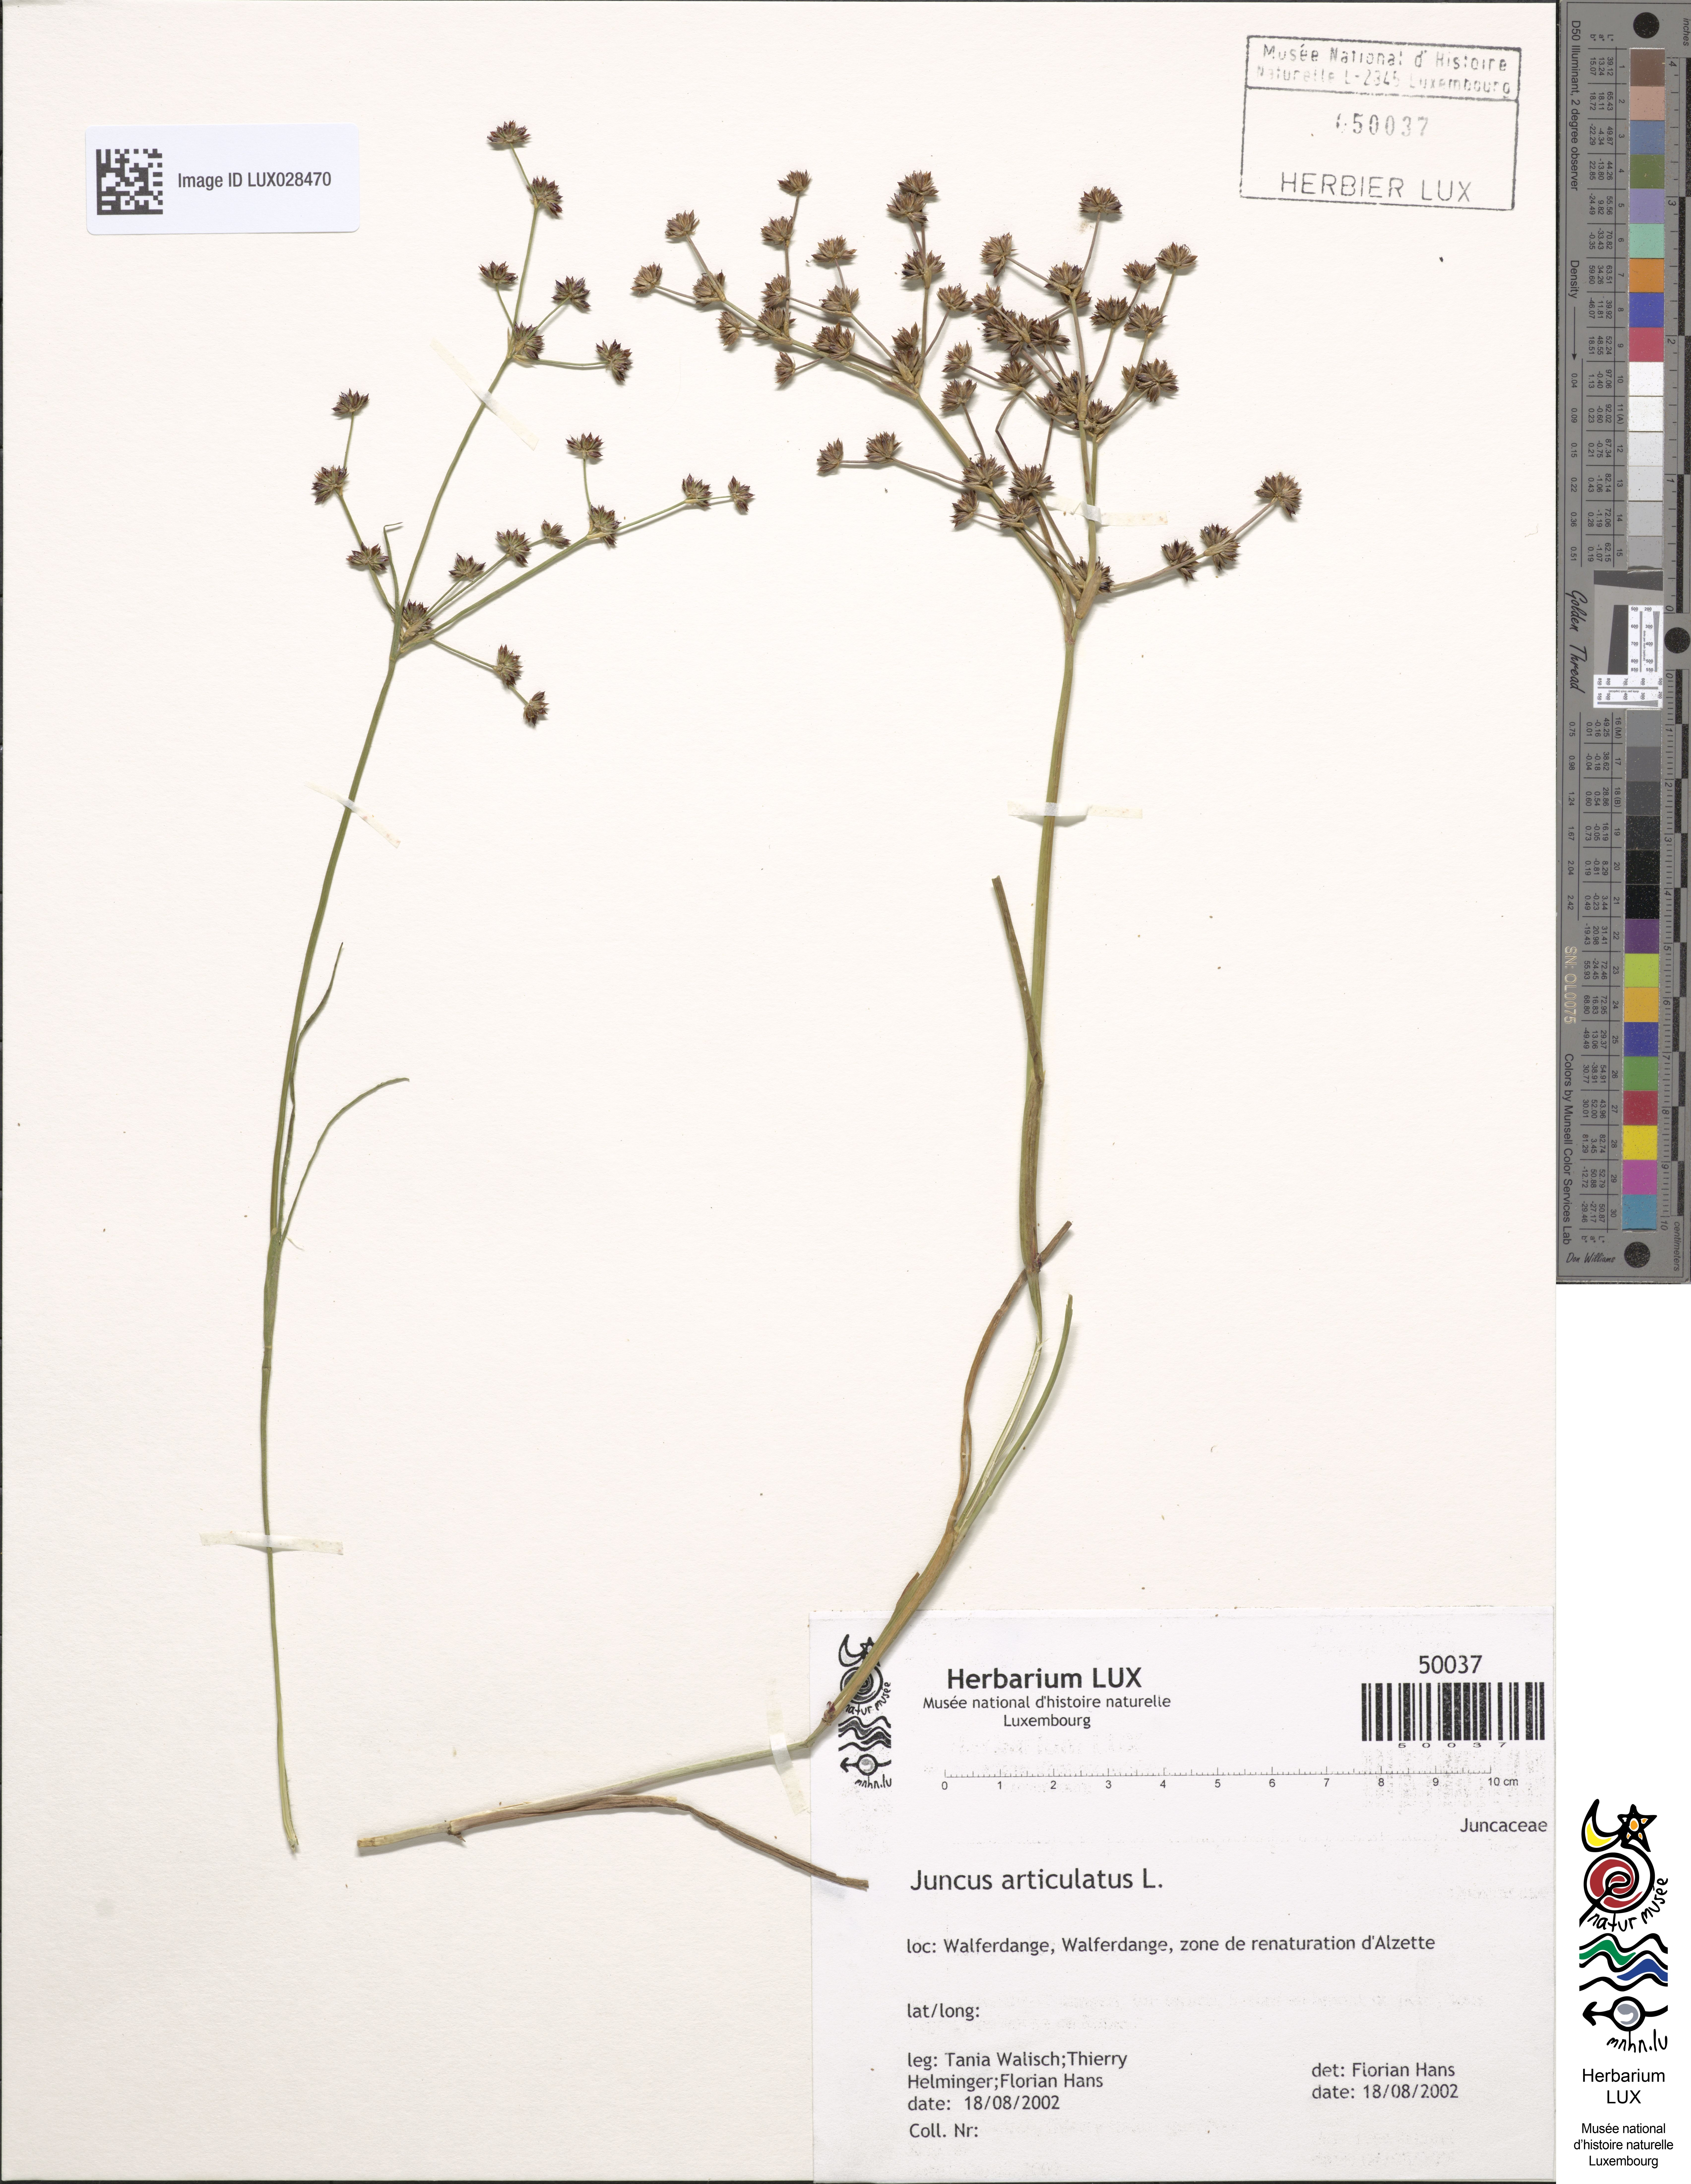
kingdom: Plantae
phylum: Tracheophyta
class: Liliopsida
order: Poales
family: Juncaceae
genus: Juncus
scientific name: Juncus articulatus
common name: Jointed rush
